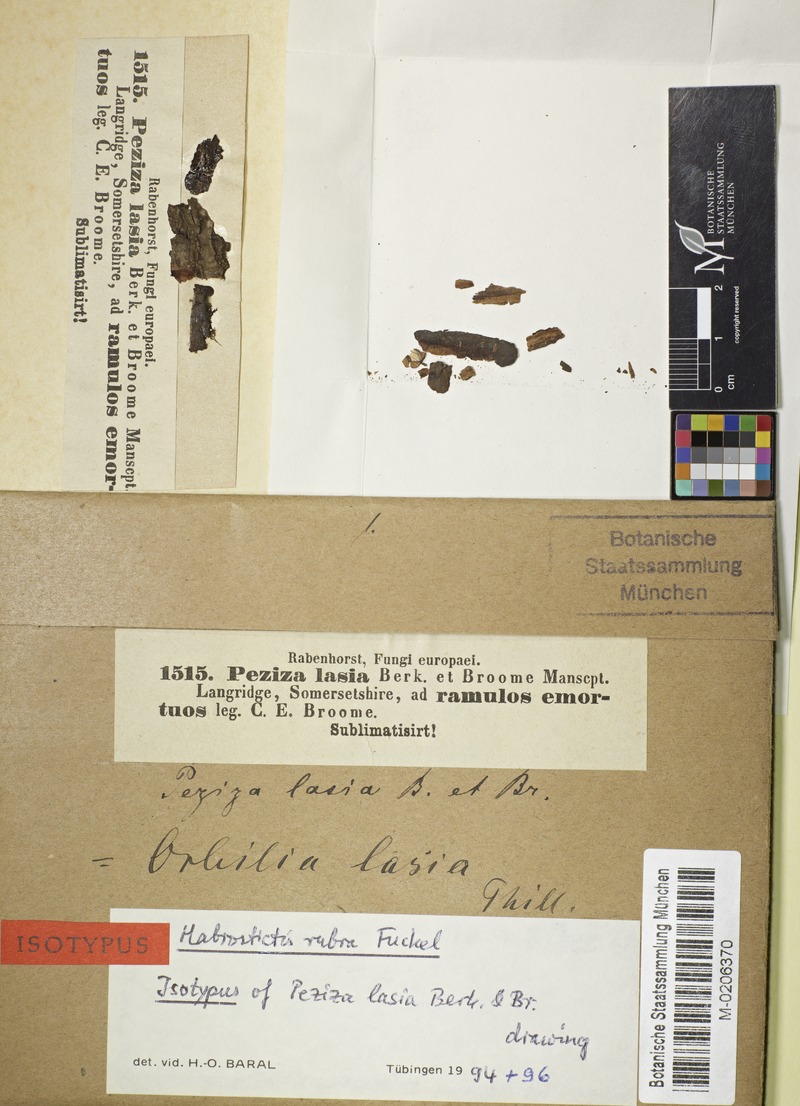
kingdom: Fungi
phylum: Ascomycota
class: Orbiliomycetes
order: Orbiliales
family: Orbiliaceae
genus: Orbilia
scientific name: Orbilia carpoboloides
